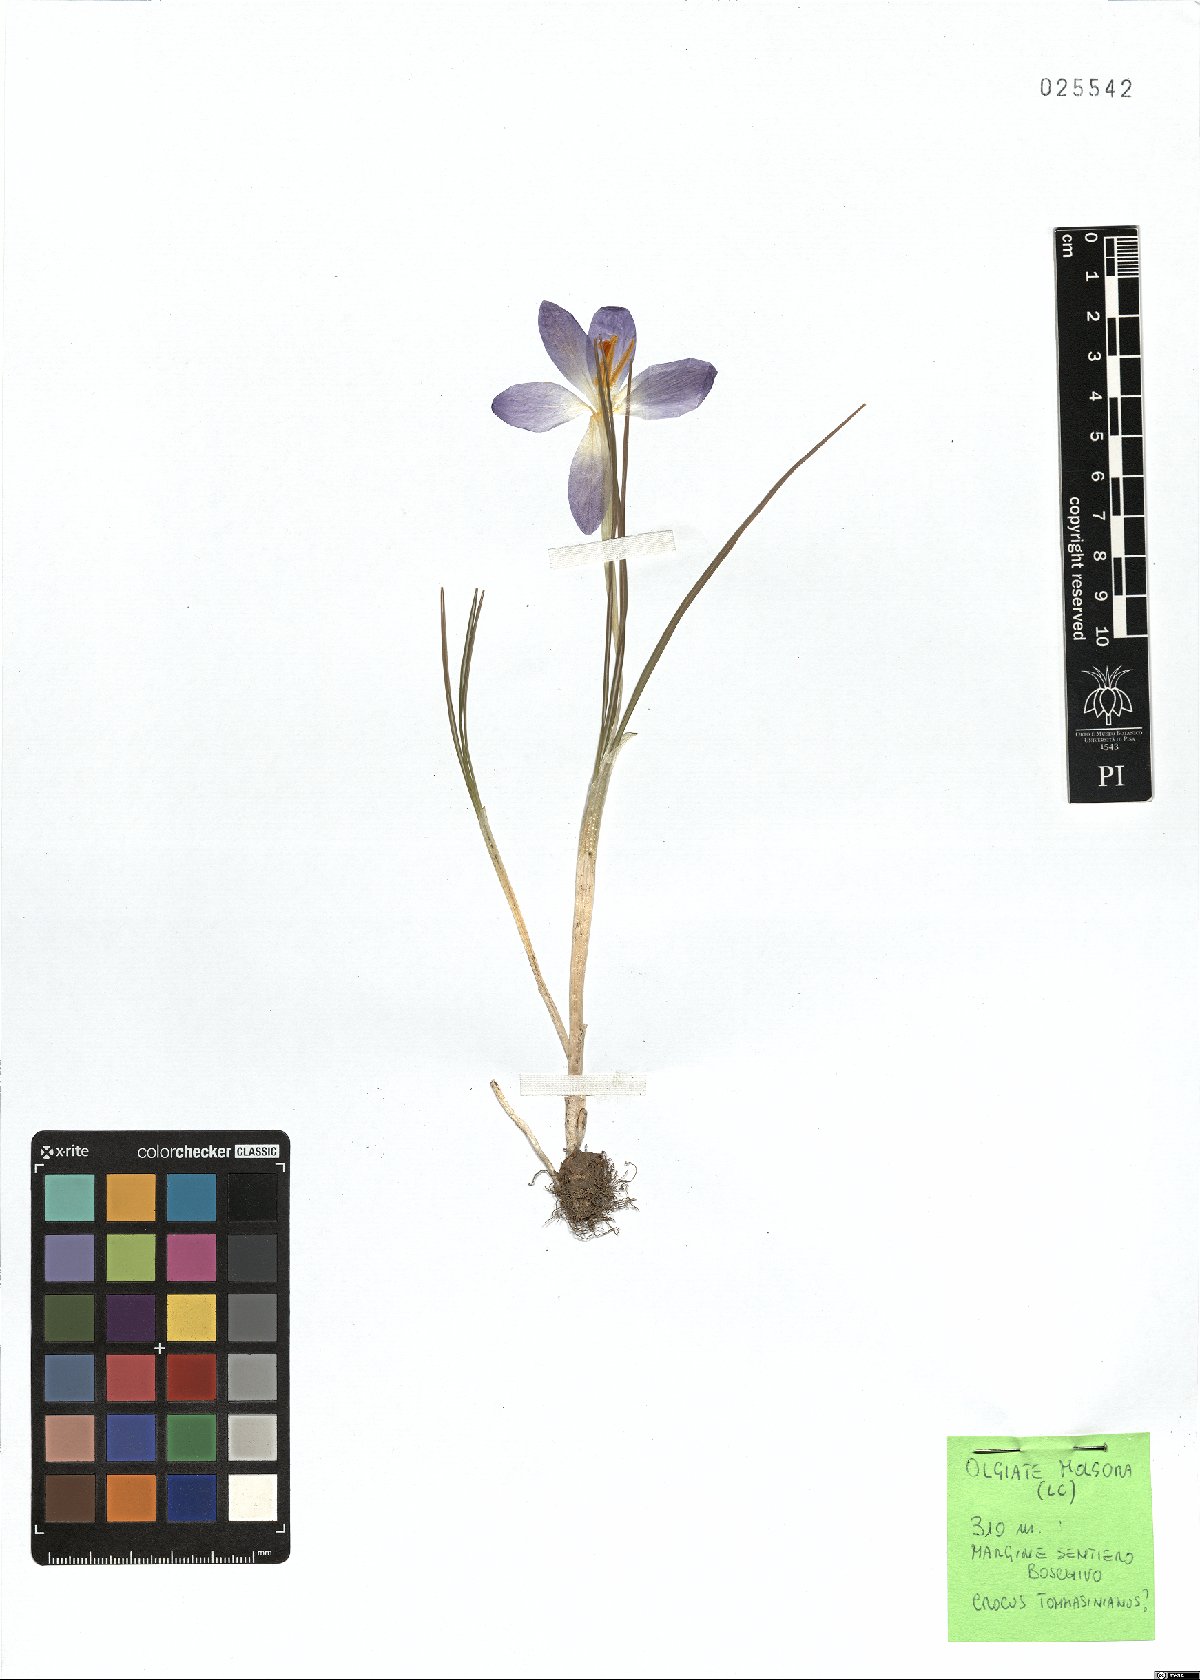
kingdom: Plantae
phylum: Tracheophyta
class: Liliopsida
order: Asparagales
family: Iridaceae
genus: Crocus
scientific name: Crocus tommasinianus
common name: Early crocus
